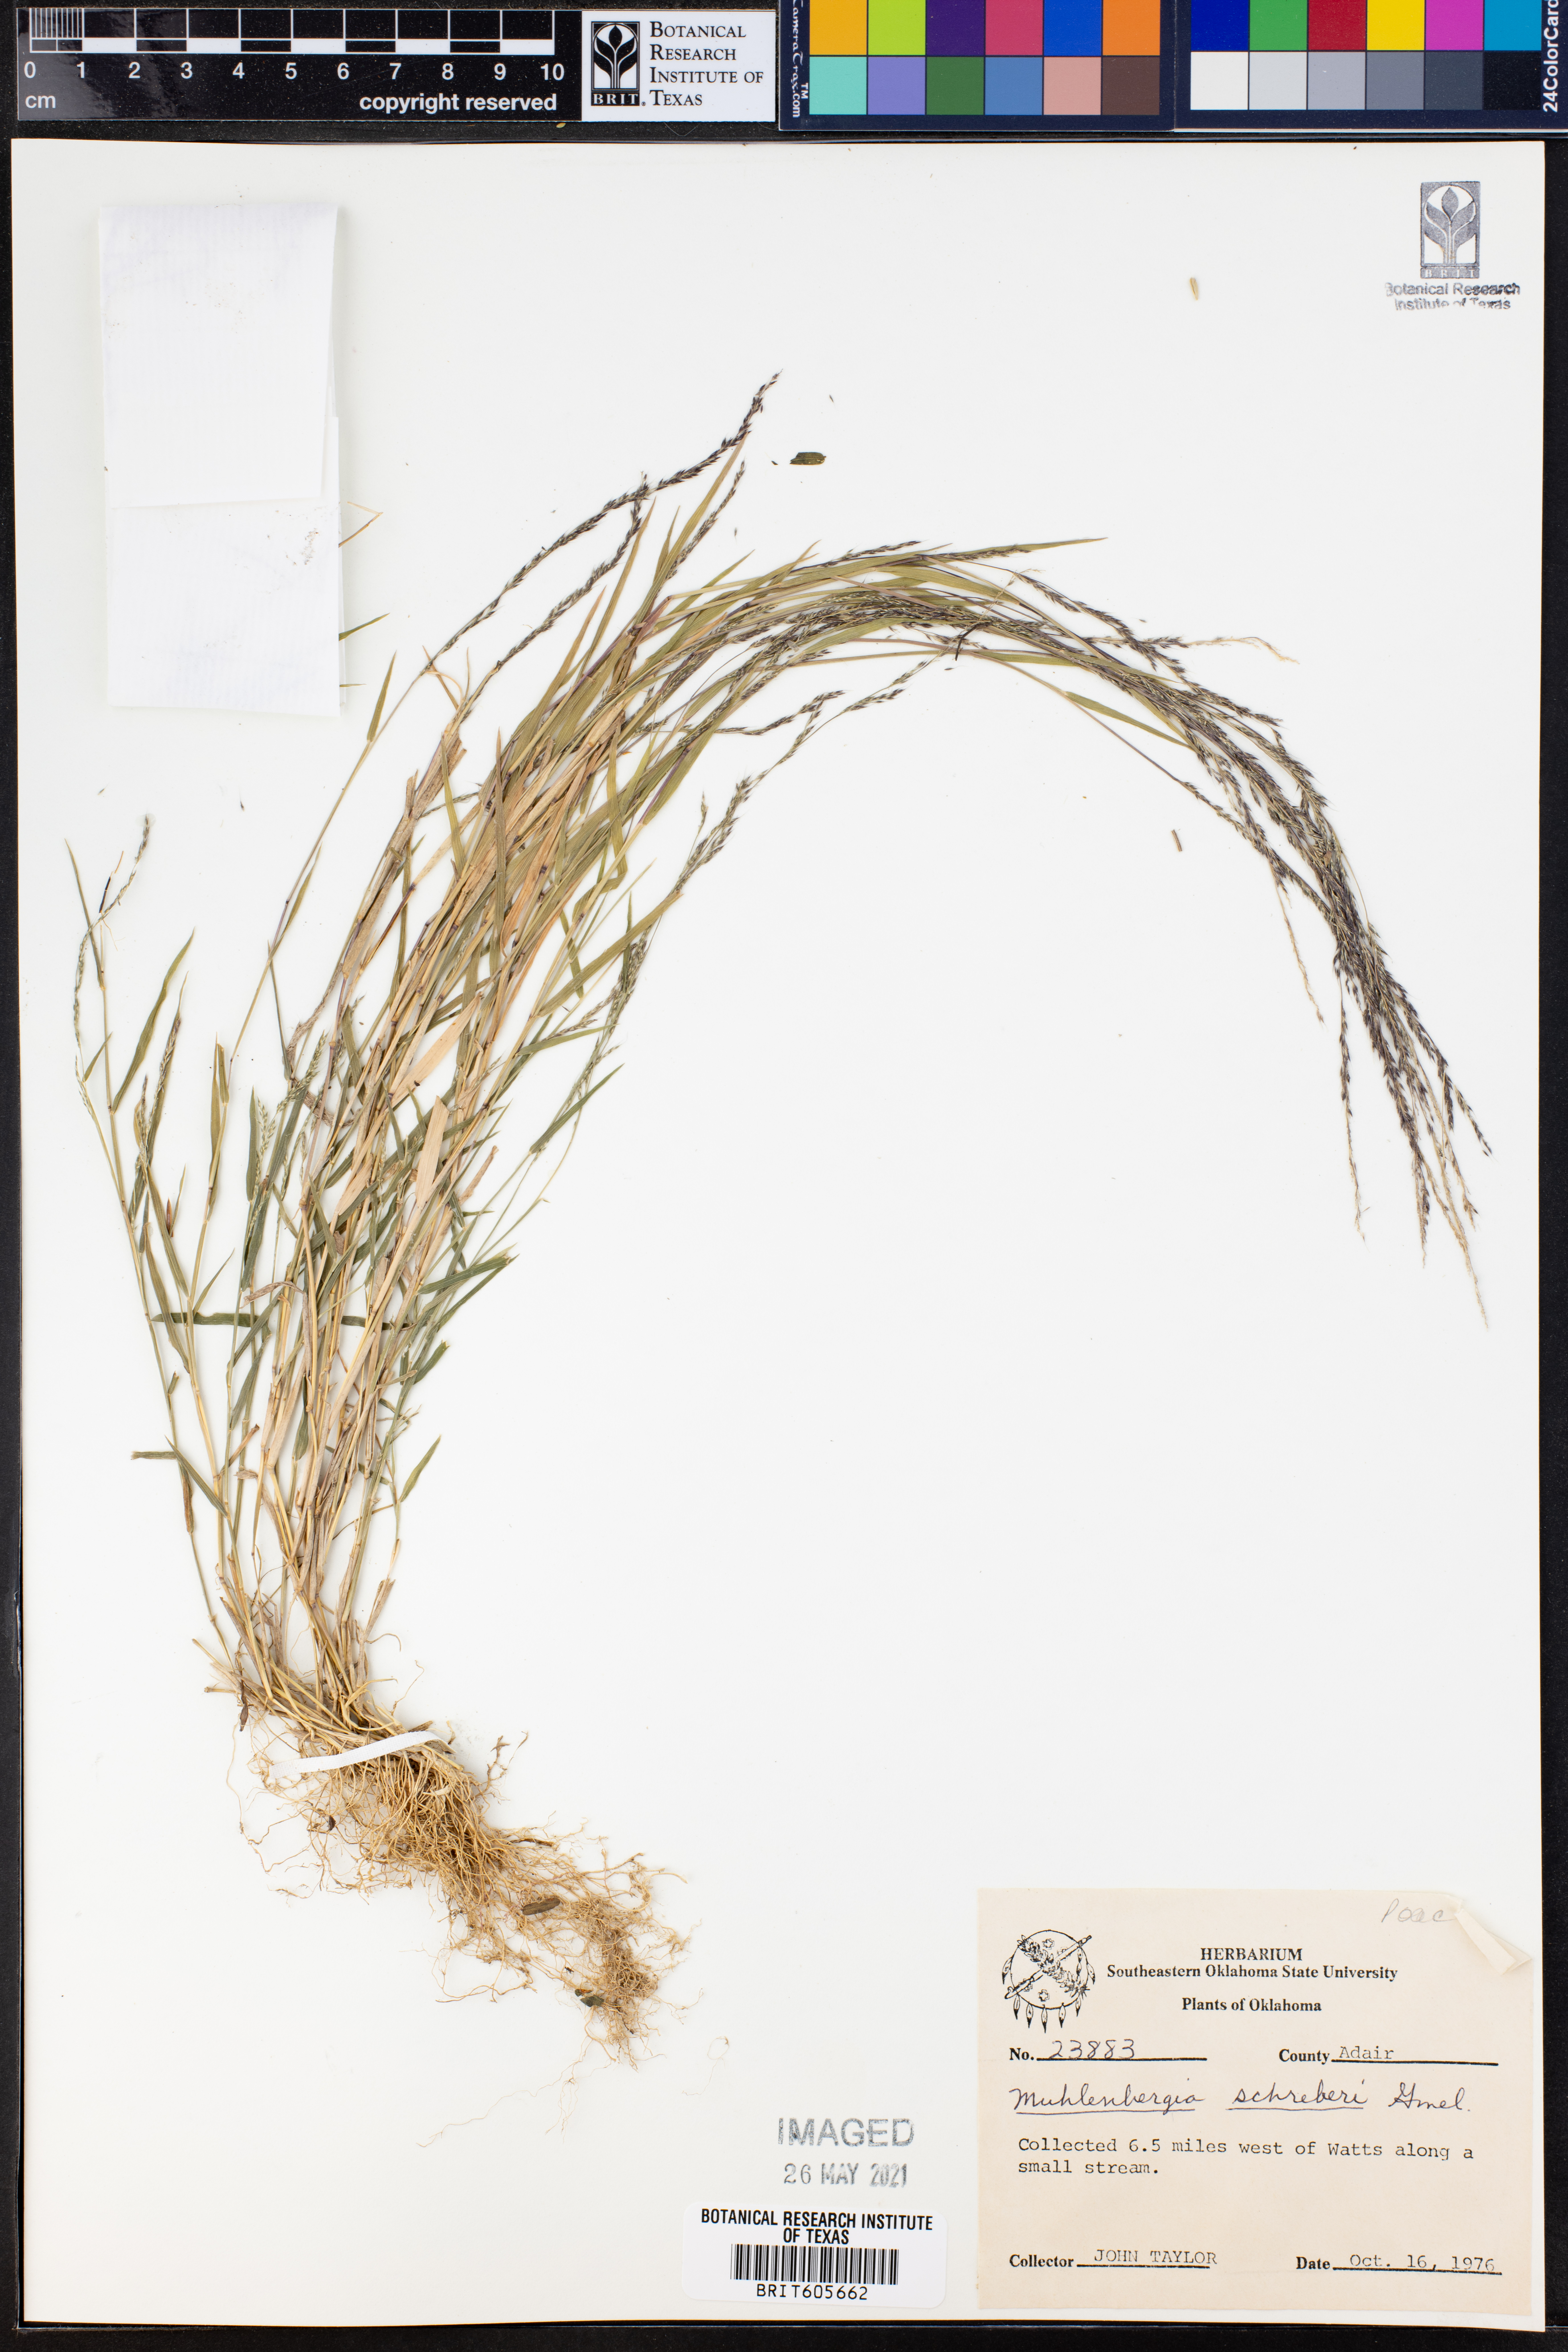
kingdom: Plantae
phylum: Tracheophyta
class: Liliopsida
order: Poales
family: Poaceae
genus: Muhlenbergia
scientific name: Muhlenbergia schreberi
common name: Nimblewill
